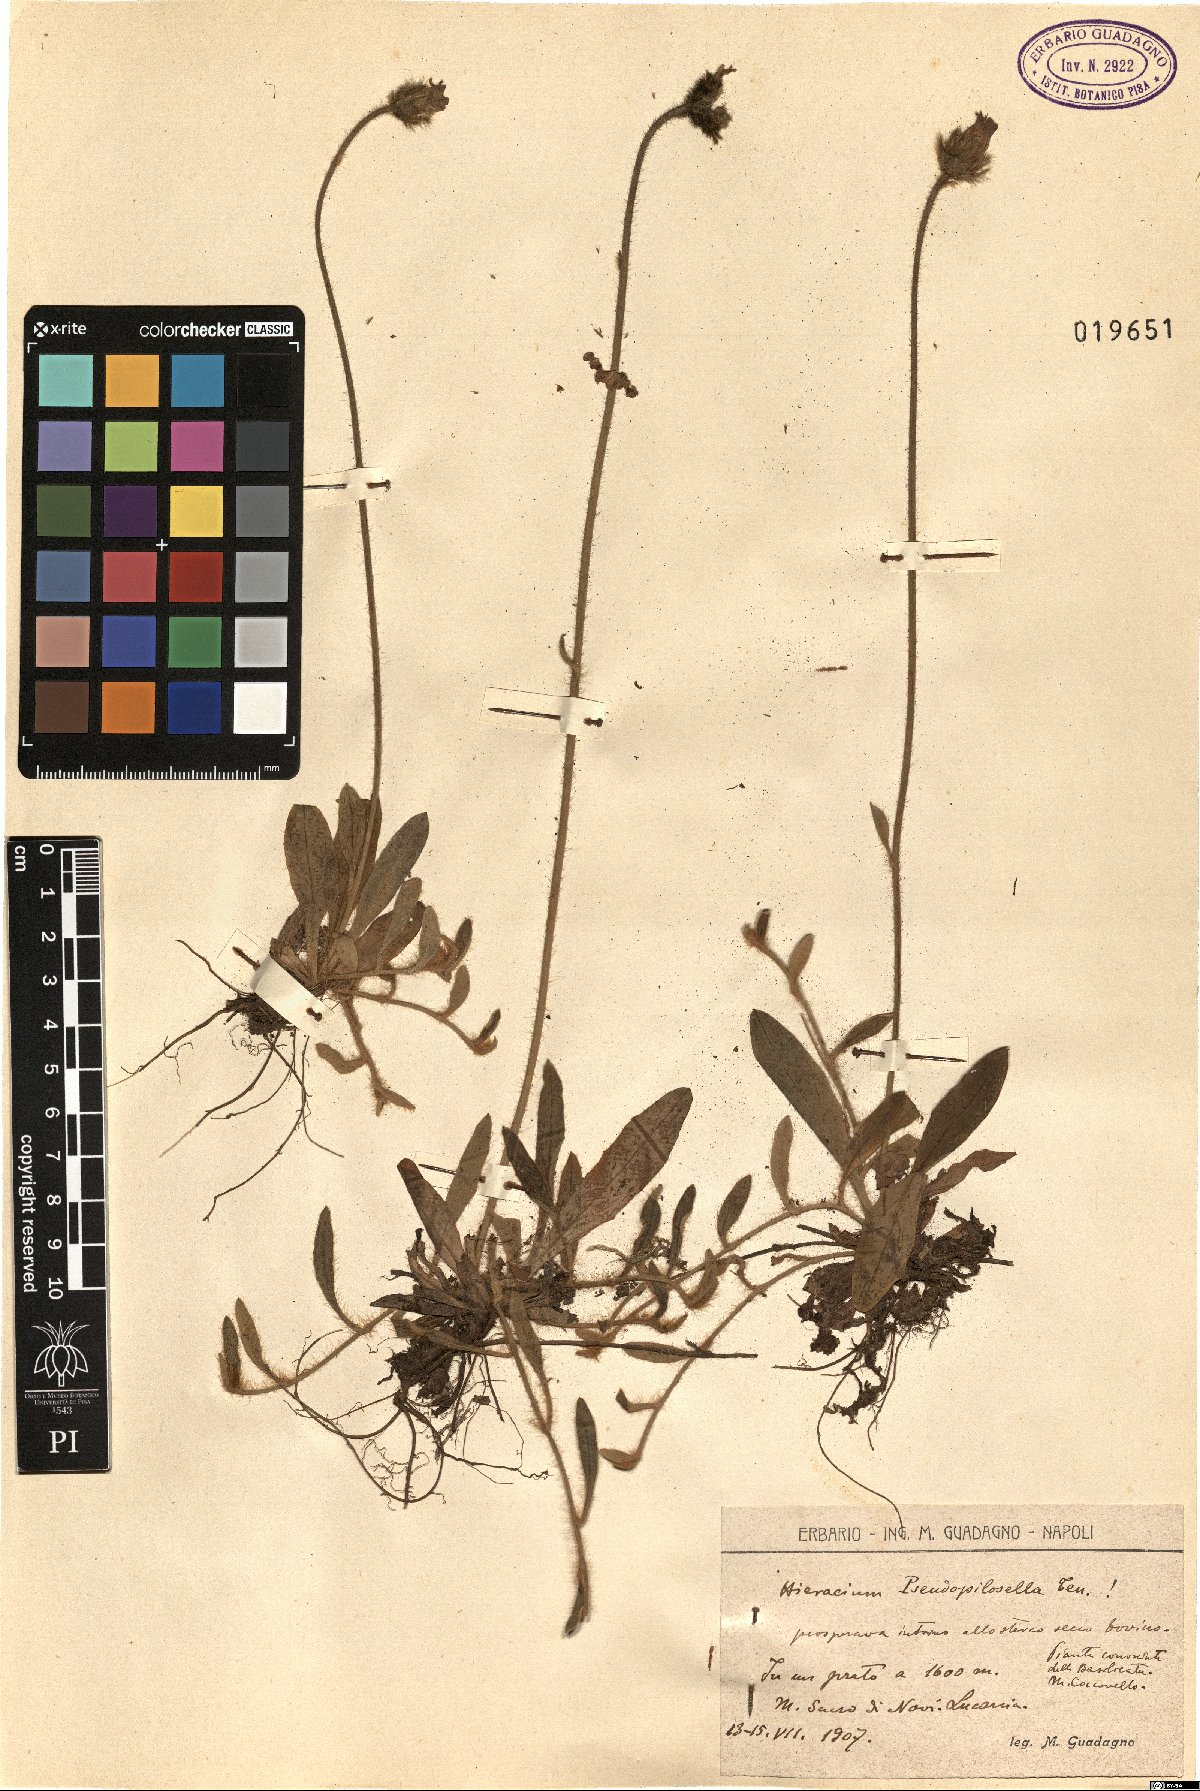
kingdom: Plantae
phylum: Tracheophyta
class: Magnoliopsida
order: Asterales
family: Asteraceae
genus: Pilosella
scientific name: Pilosella pseudopilosella
